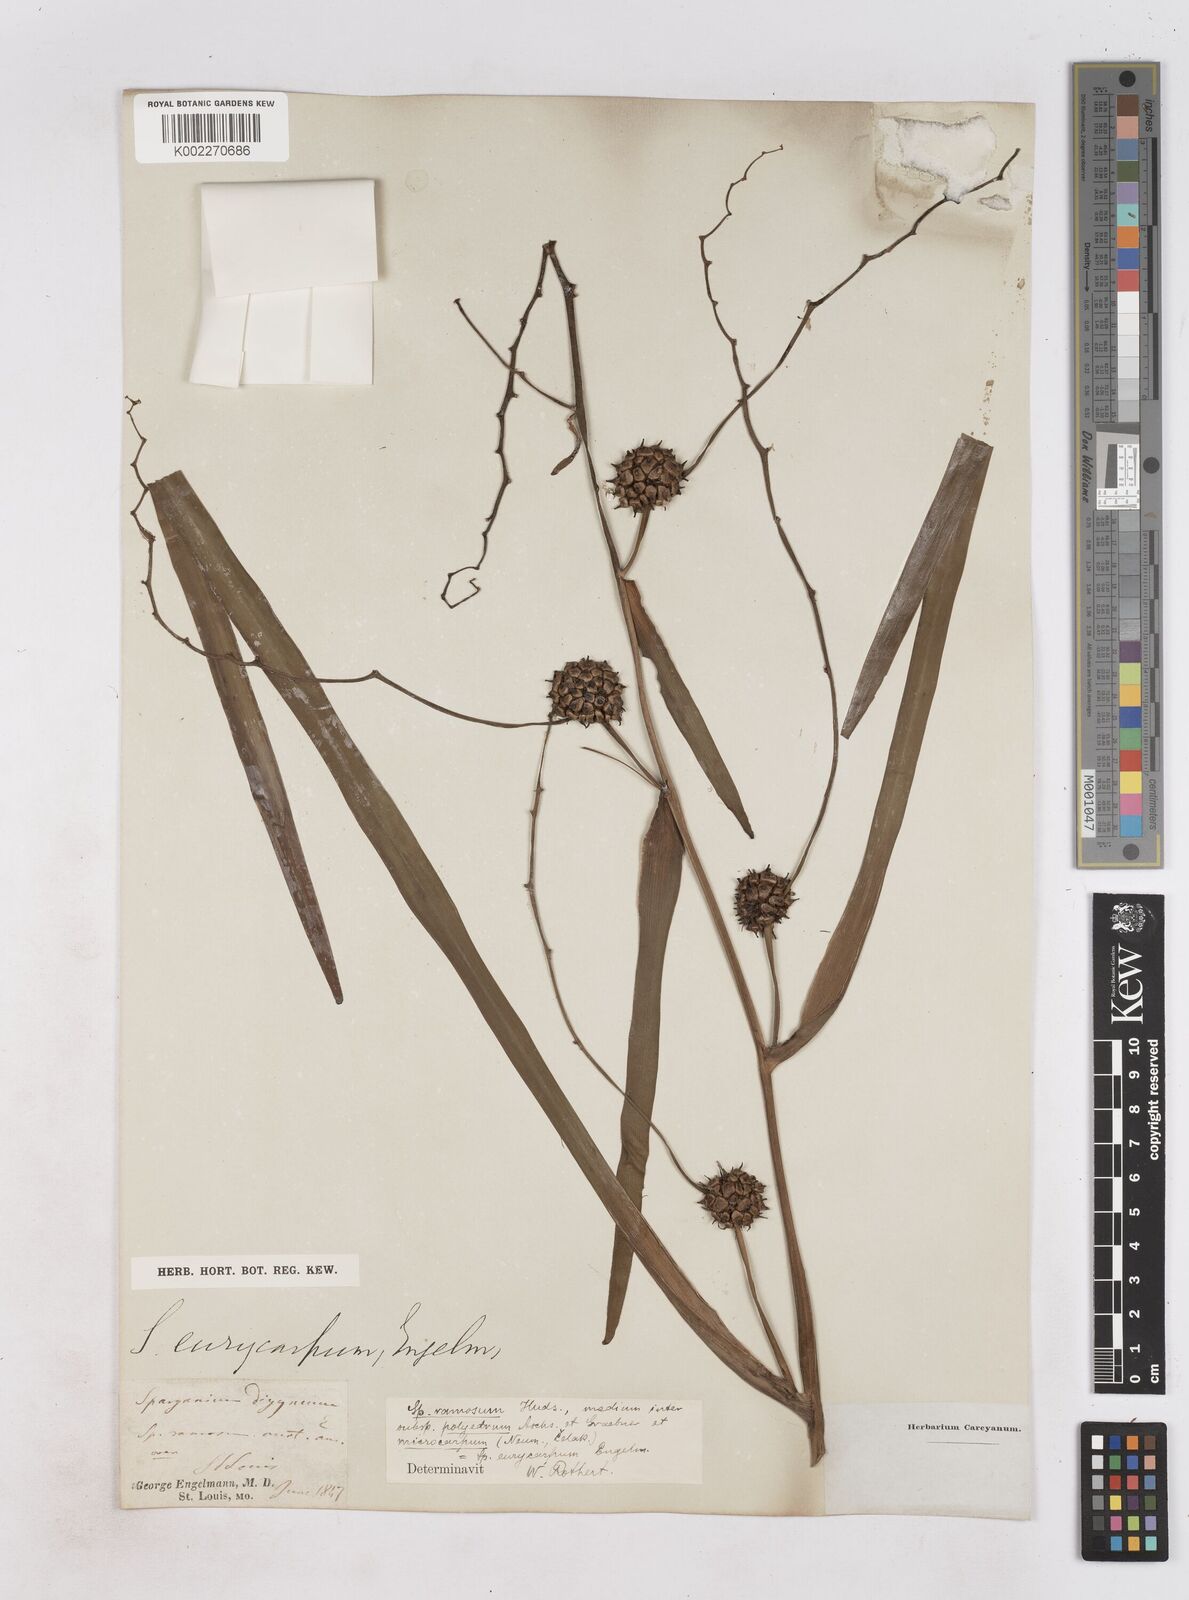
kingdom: Plantae
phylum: Tracheophyta
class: Liliopsida
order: Poales
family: Typhaceae
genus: Sparganium
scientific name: Sparganium erectum
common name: Branched bur-reed
